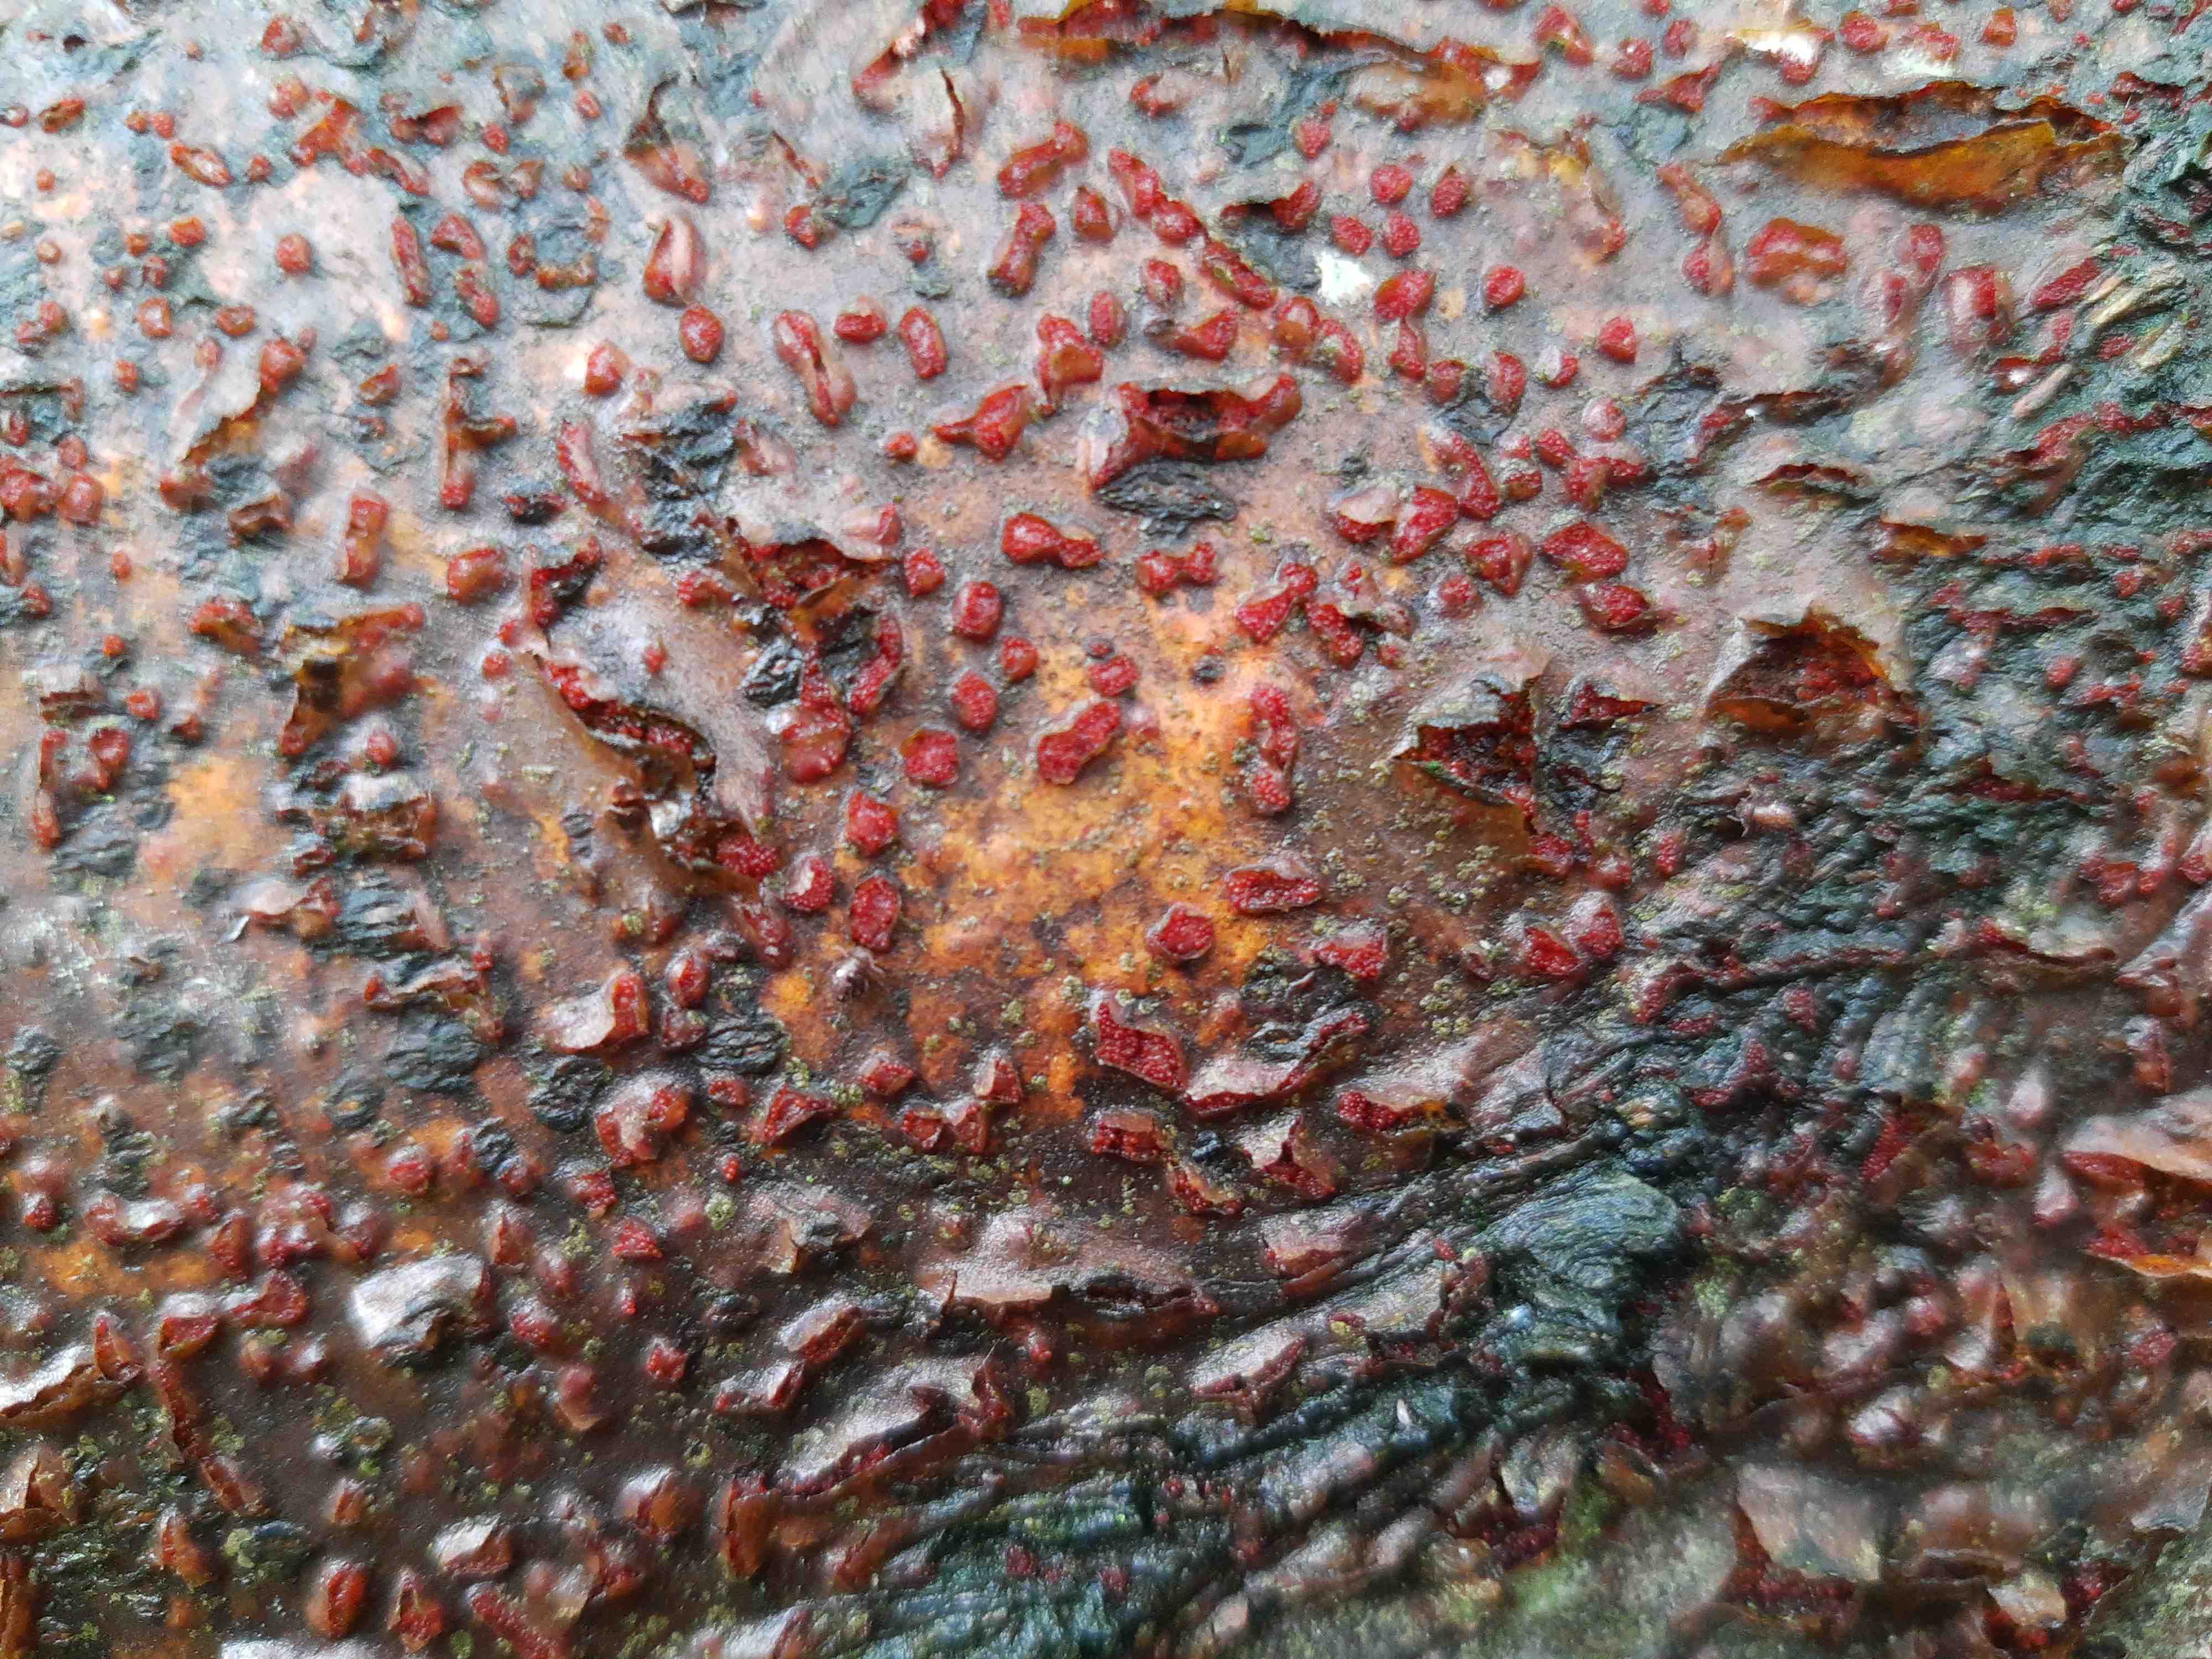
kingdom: Fungi
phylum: Ascomycota
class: Sordariomycetes
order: Hypocreales
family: Nectriaceae
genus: Neonectria
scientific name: Neonectria coccinea
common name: bøgebark-cinnobersvamp
